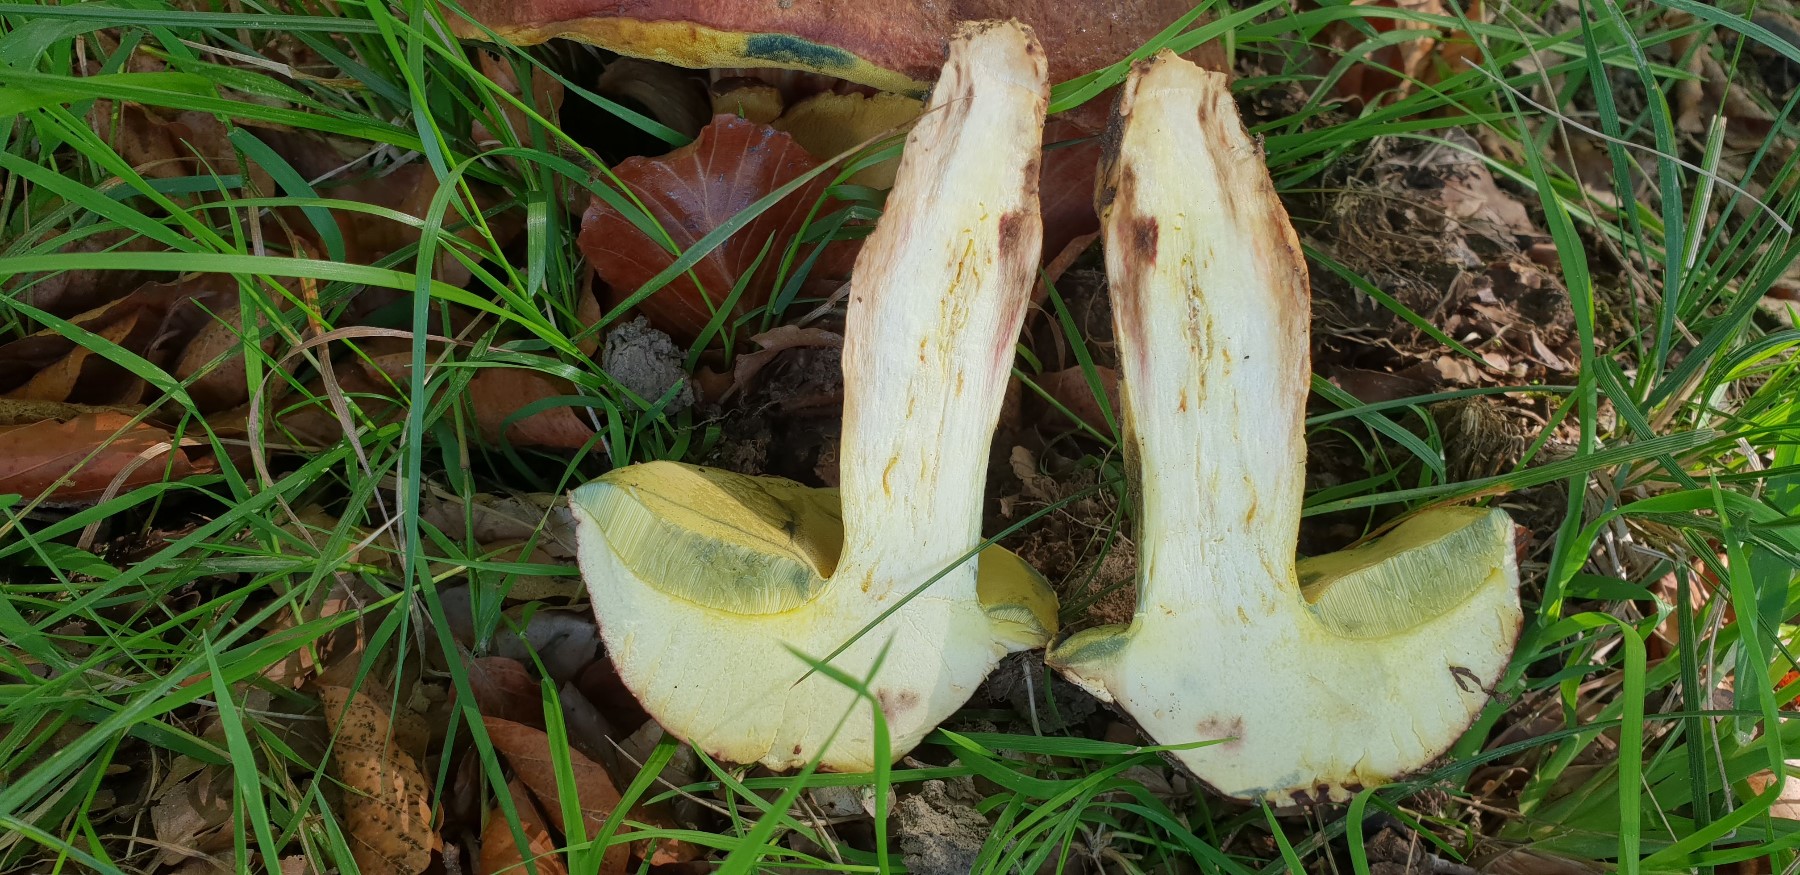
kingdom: Fungi
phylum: Basidiomycota
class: Agaricomycetes
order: Boletales
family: Boletaceae
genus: Butyriboletus
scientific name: Butyriboletus appendiculatus
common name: tenstokket rørhat
